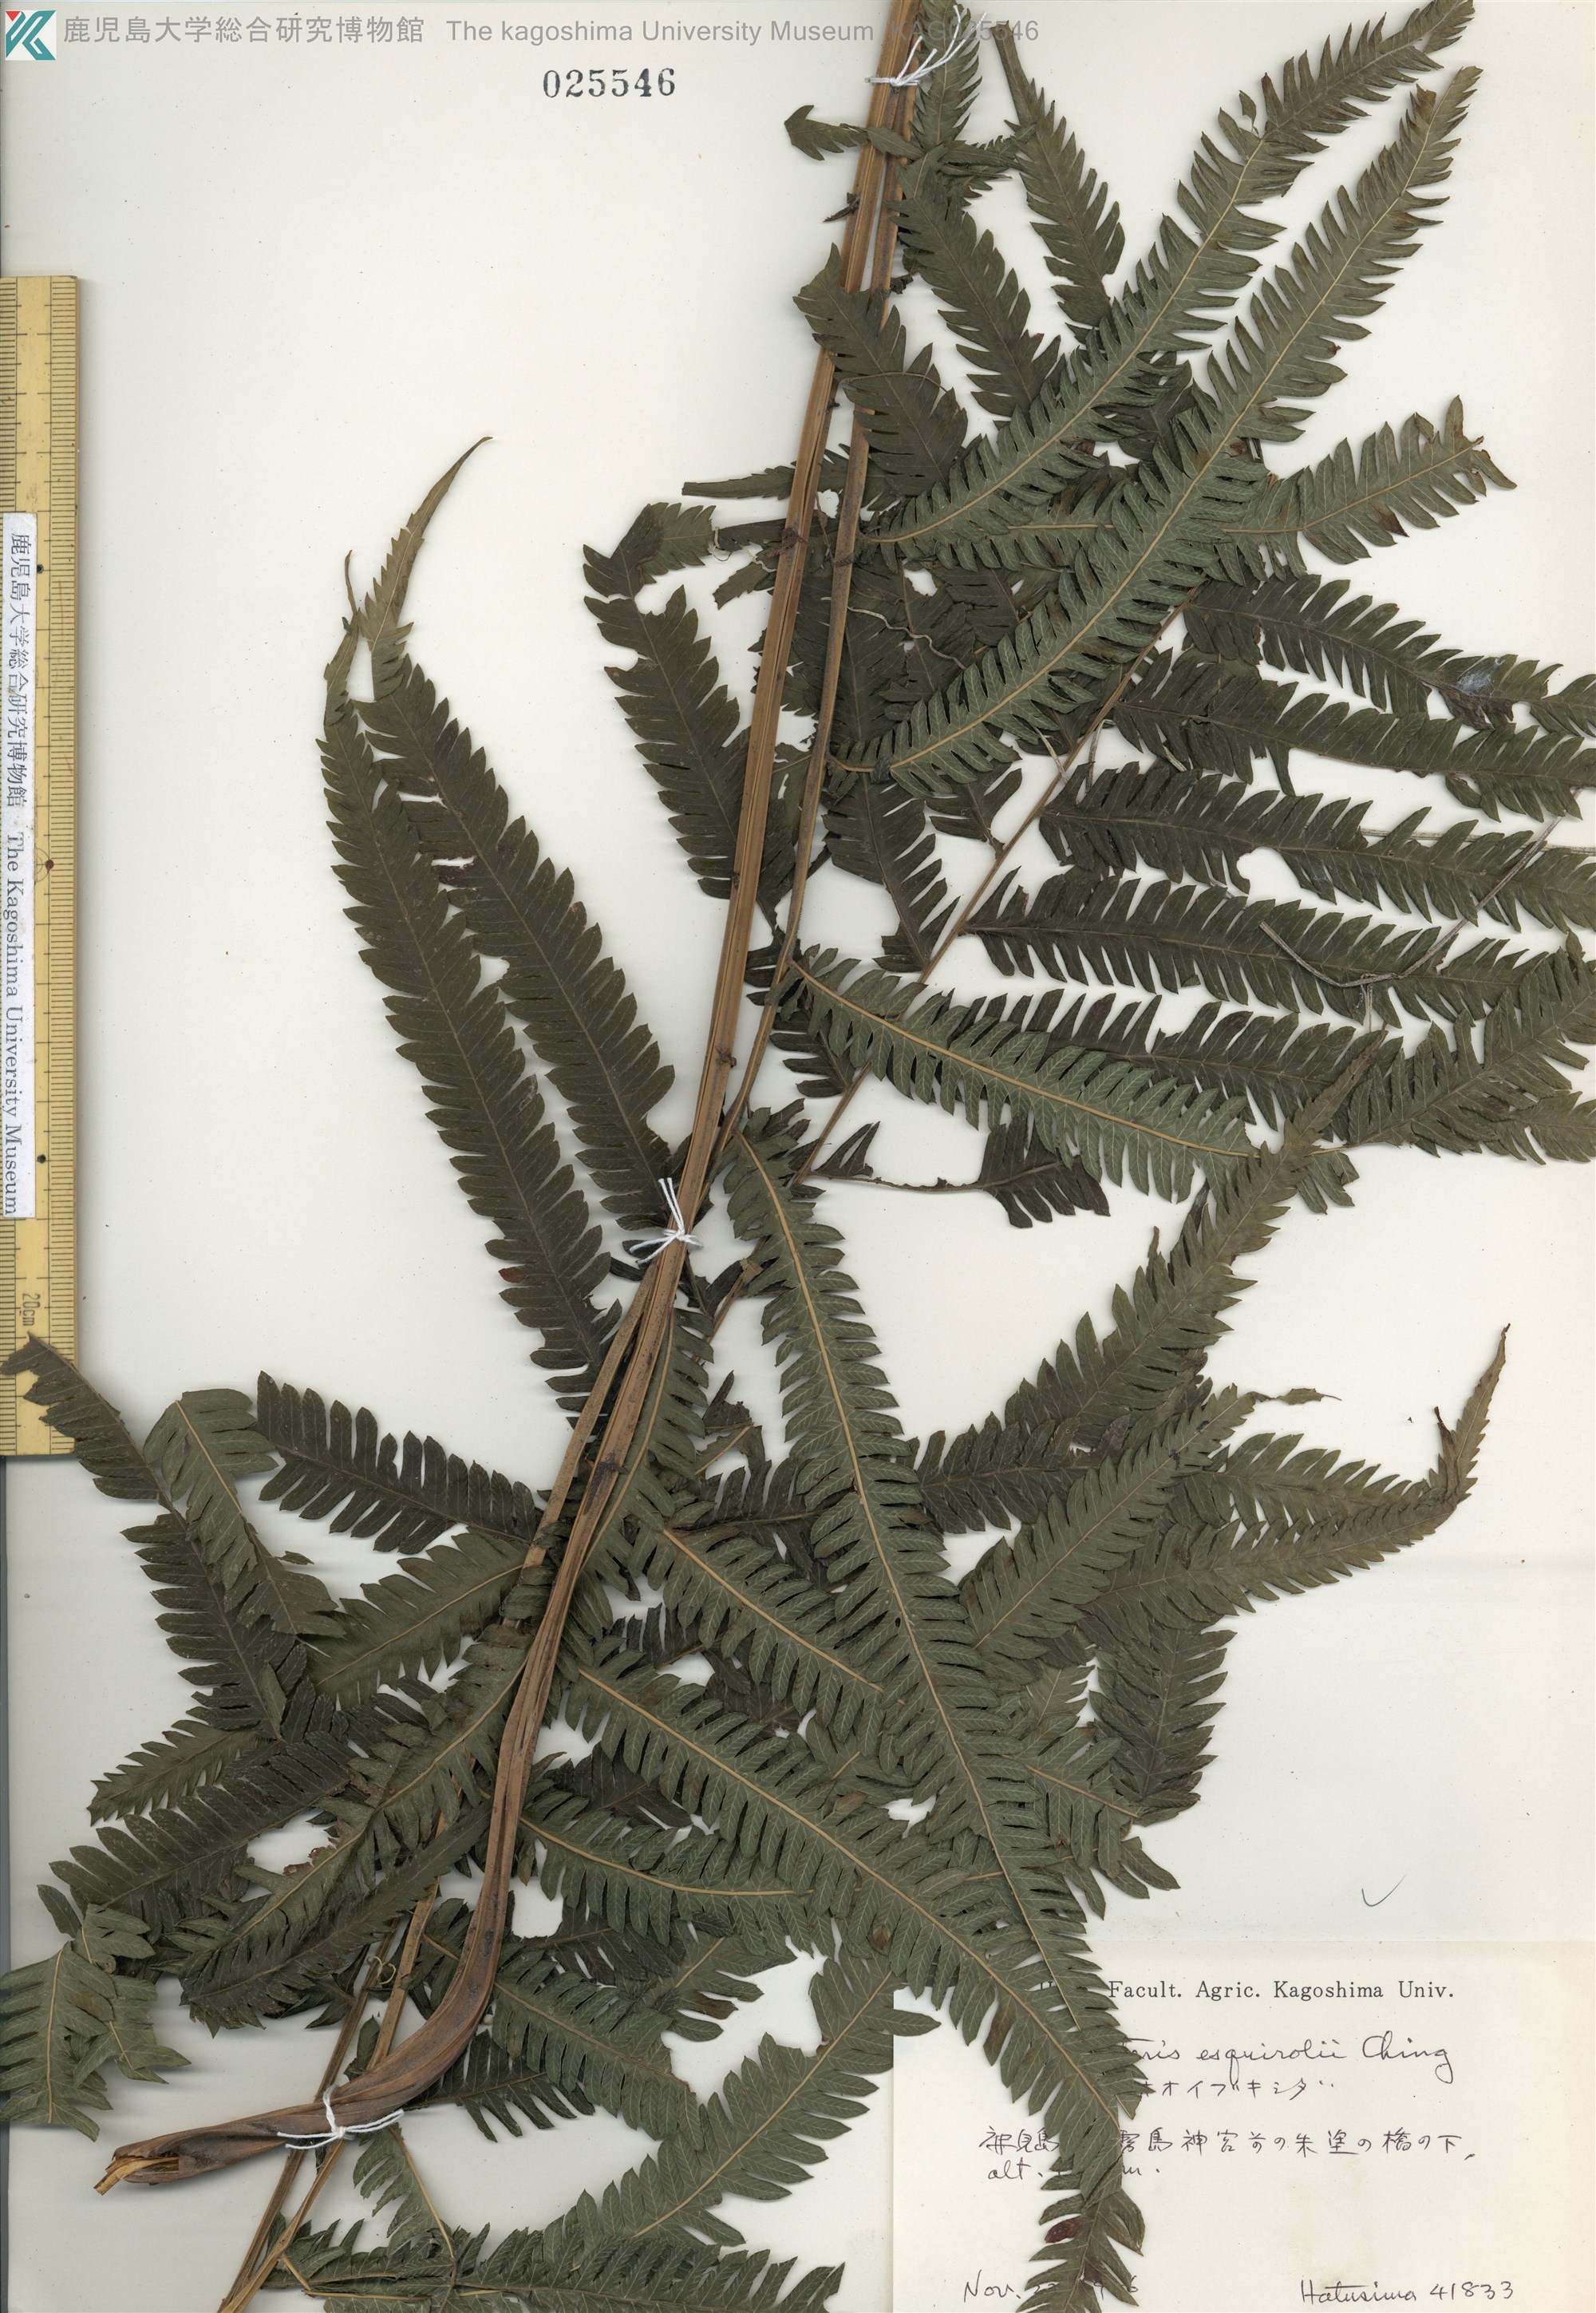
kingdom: Plantae
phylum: Tracheophyta
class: Polypodiopsida
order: Polypodiales
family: Thelypteridaceae
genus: Pseudocyclosorus
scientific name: Pseudocyclosorus esquirolii
